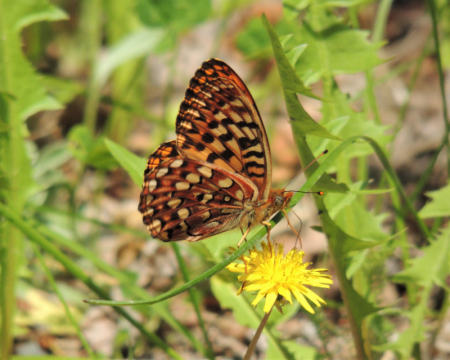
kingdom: Animalia
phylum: Arthropoda
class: Insecta
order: Lepidoptera
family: Nymphalidae
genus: Speyeria
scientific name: Speyeria hydaspe
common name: Hydaspe Fritillary
